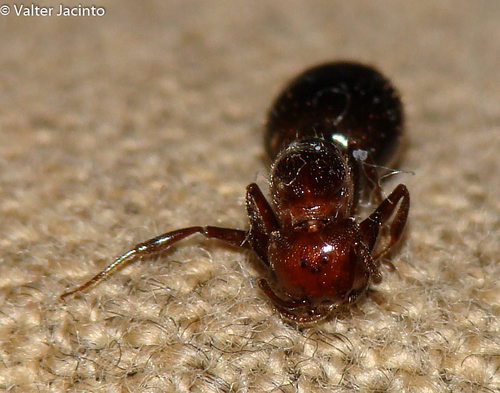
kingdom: Animalia
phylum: Arthropoda
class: Insecta
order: Hymenoptera
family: Formicidae
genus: Crematogaster
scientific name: Crematogaster scutellaris
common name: Fourmi du liège
